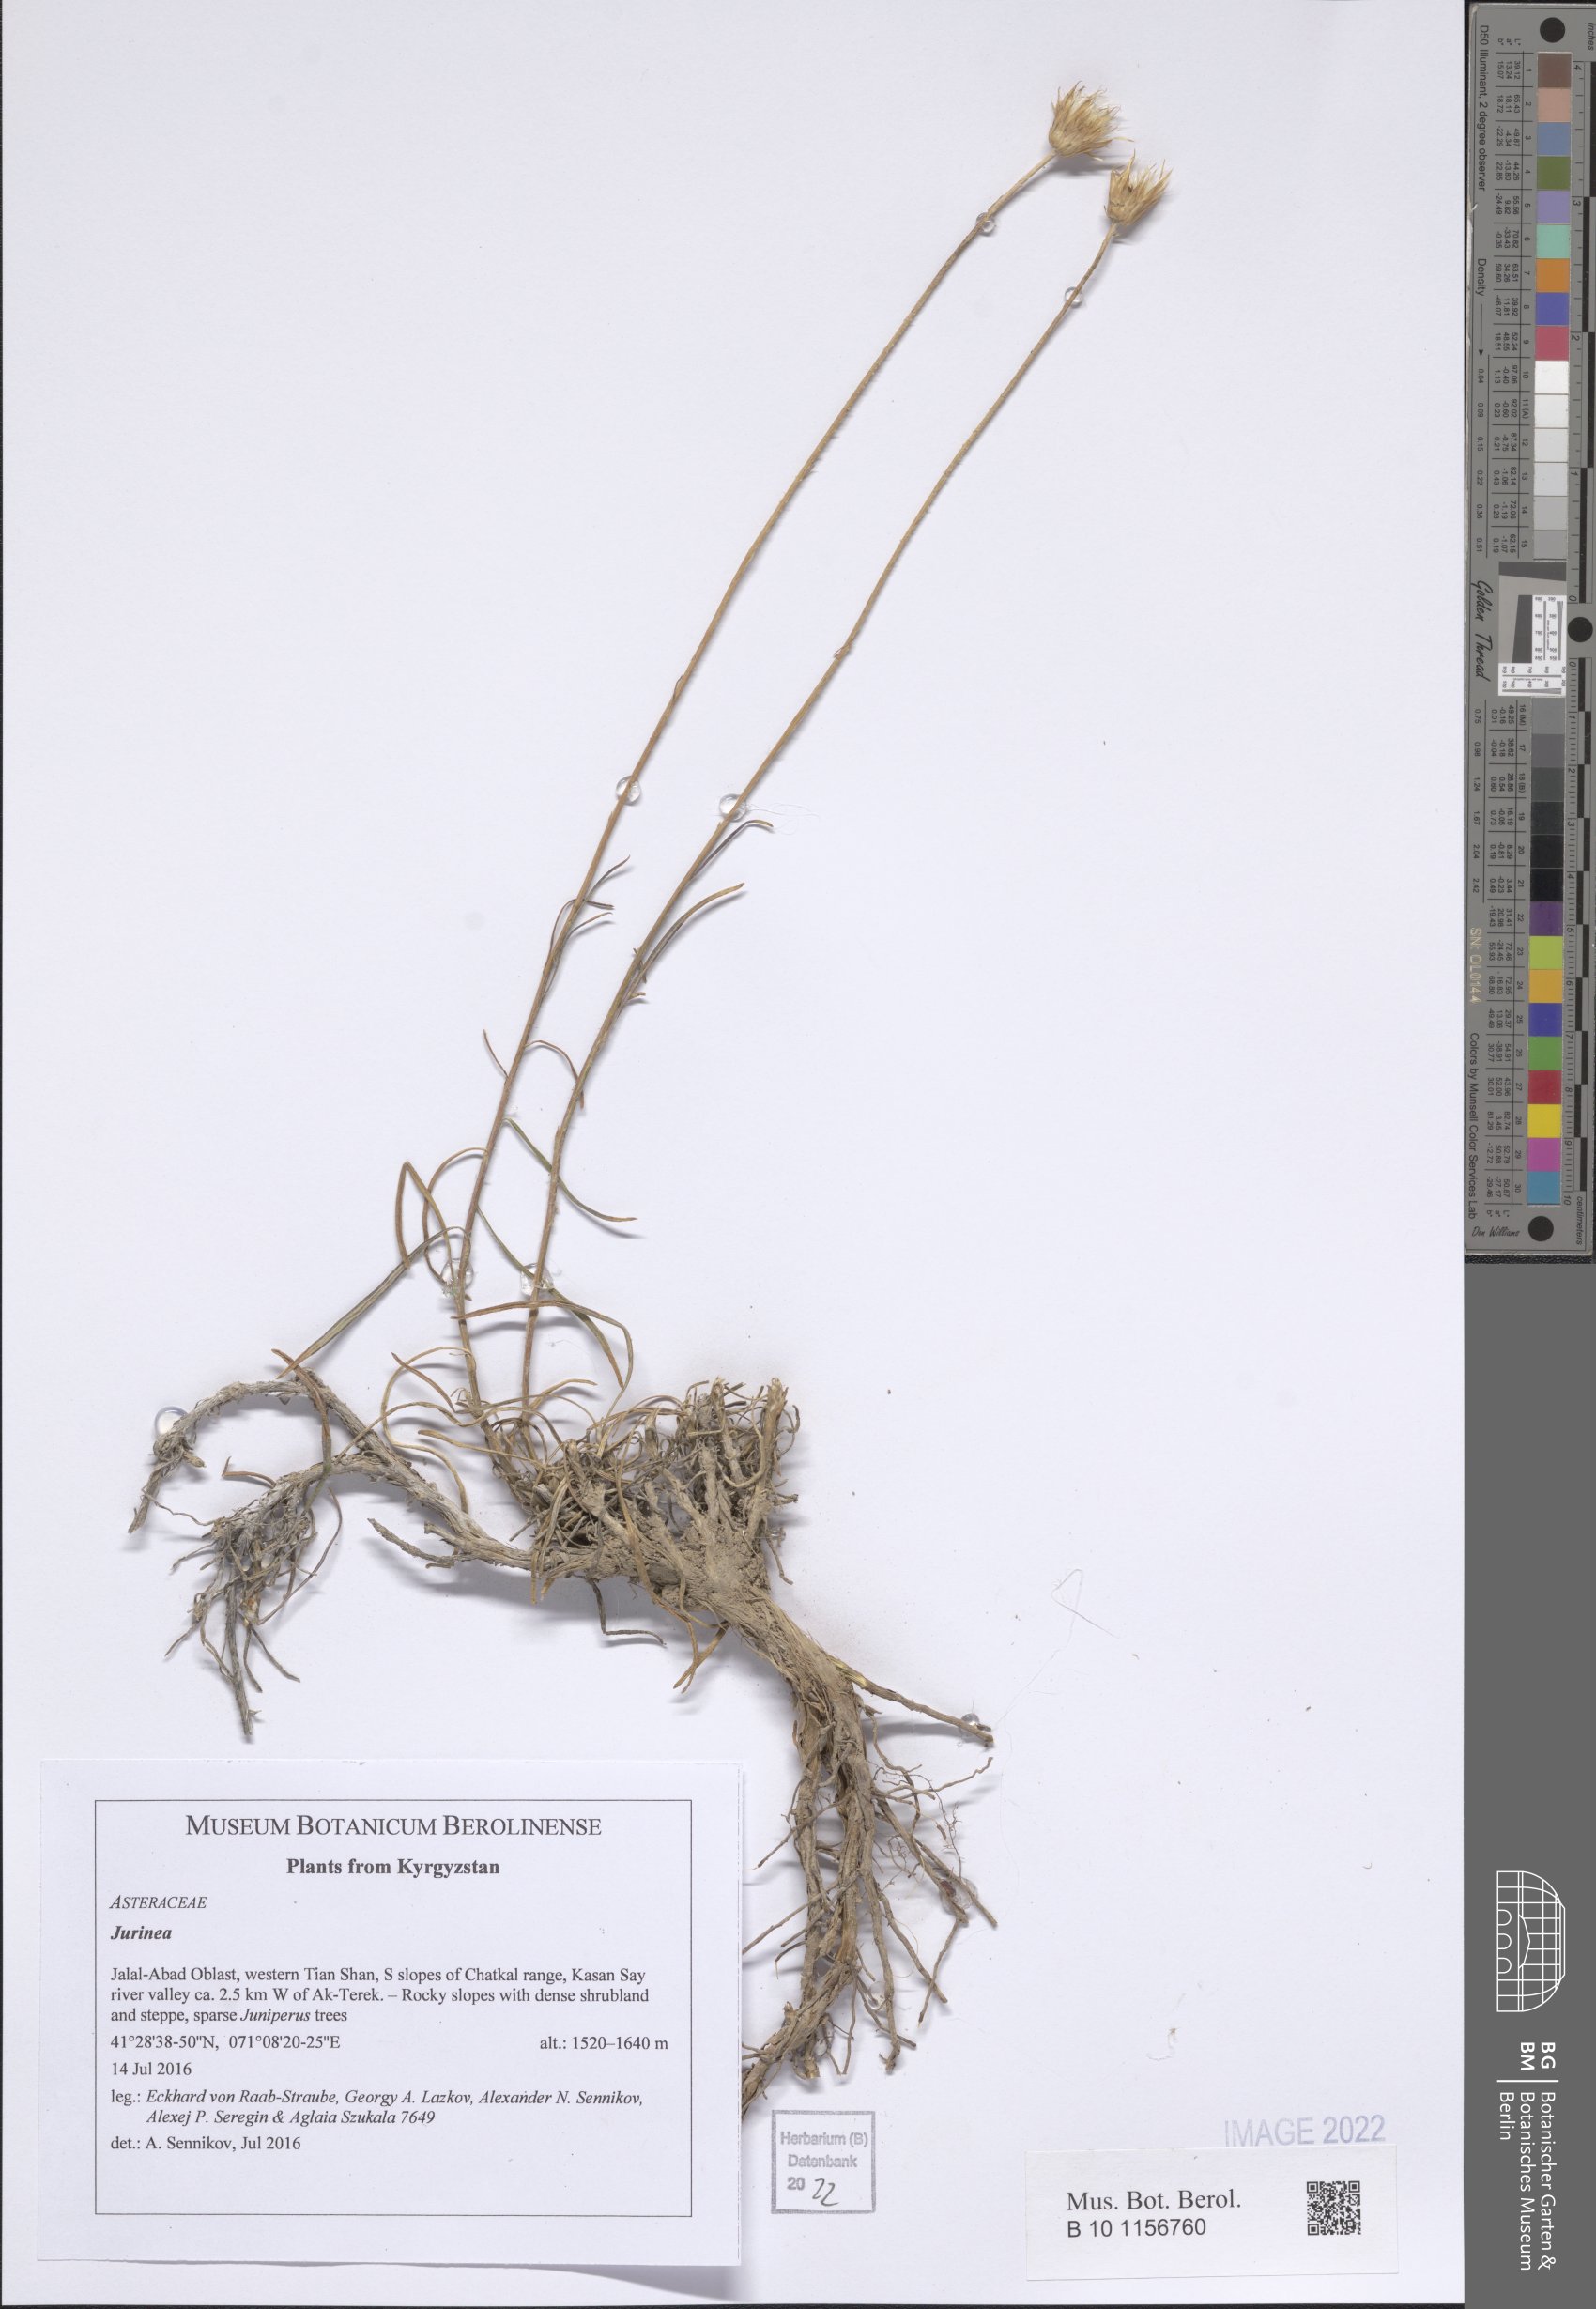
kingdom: Plantae
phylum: Tracheophyta
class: Magnoliopsida
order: Asterales
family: Asteraceae
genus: Jurinea
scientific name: Jurinea
